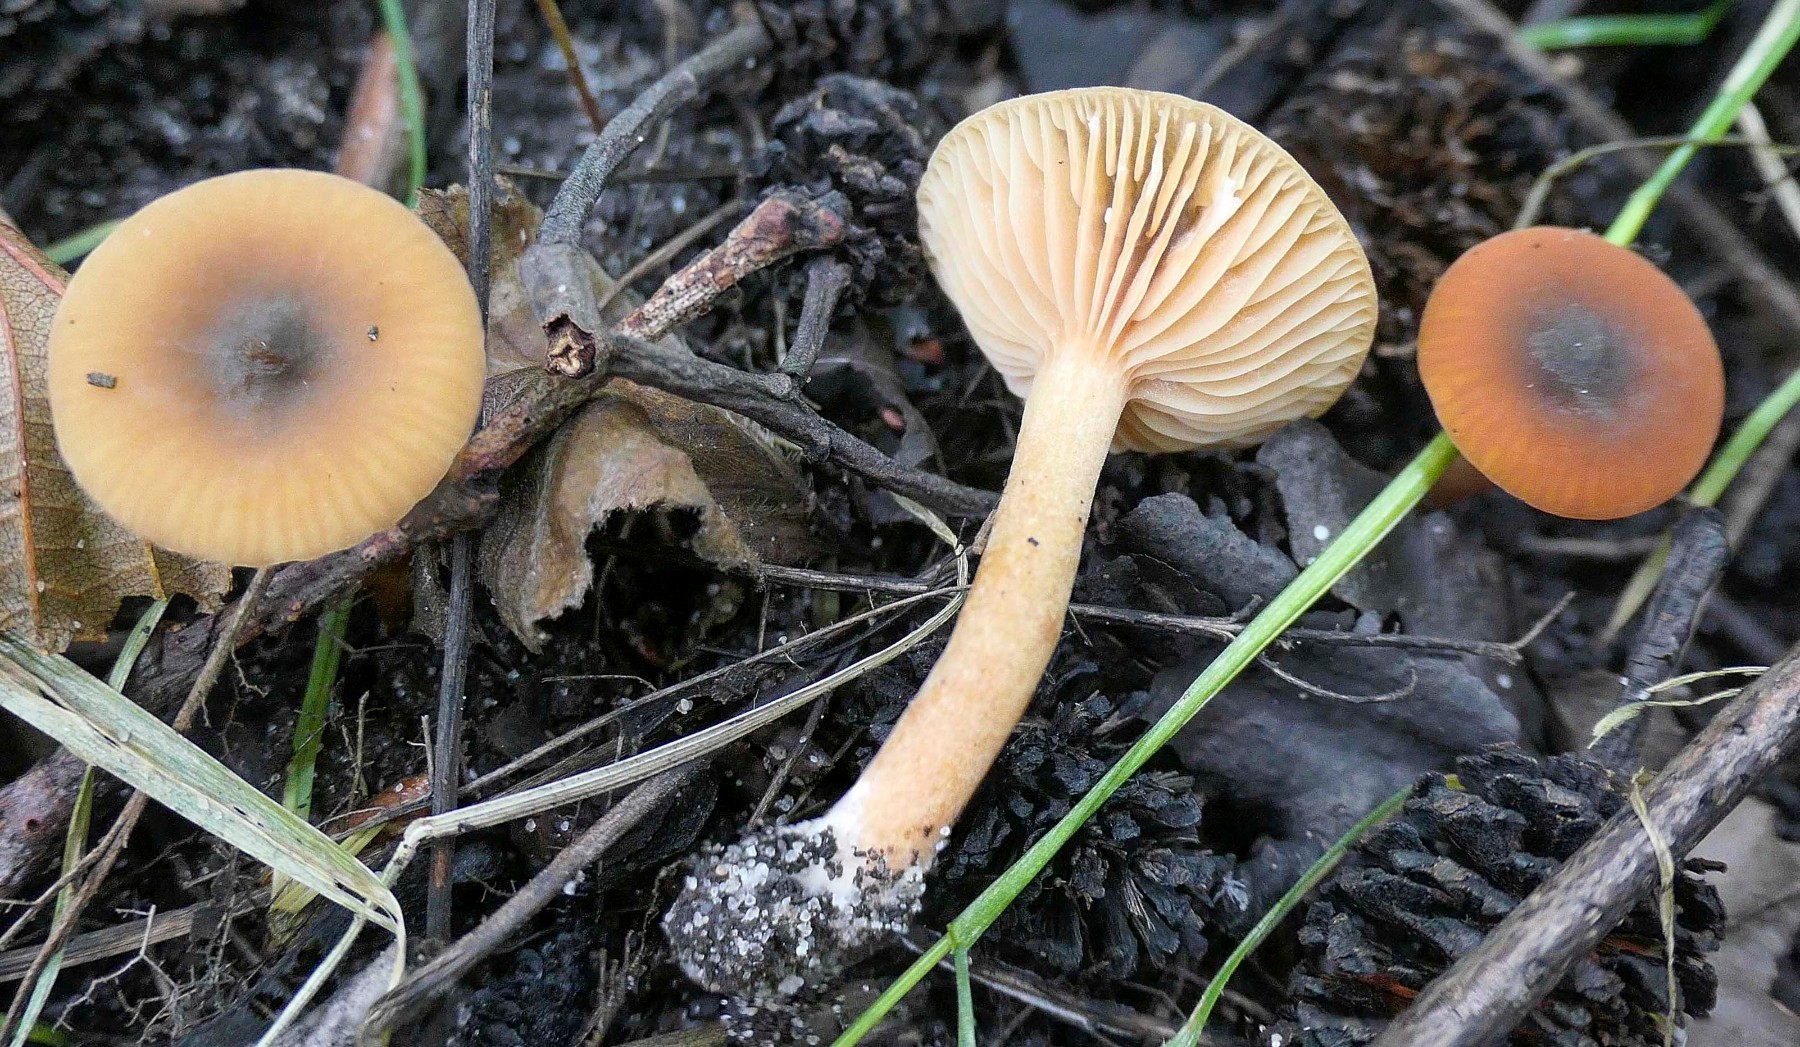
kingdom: Fungi
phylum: Basidiomycota
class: Agaricomycetes
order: Russulales
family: Russulaceae
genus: Lactarius
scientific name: Lactarius cyathuliformis
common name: mørkøjet mælkehat
